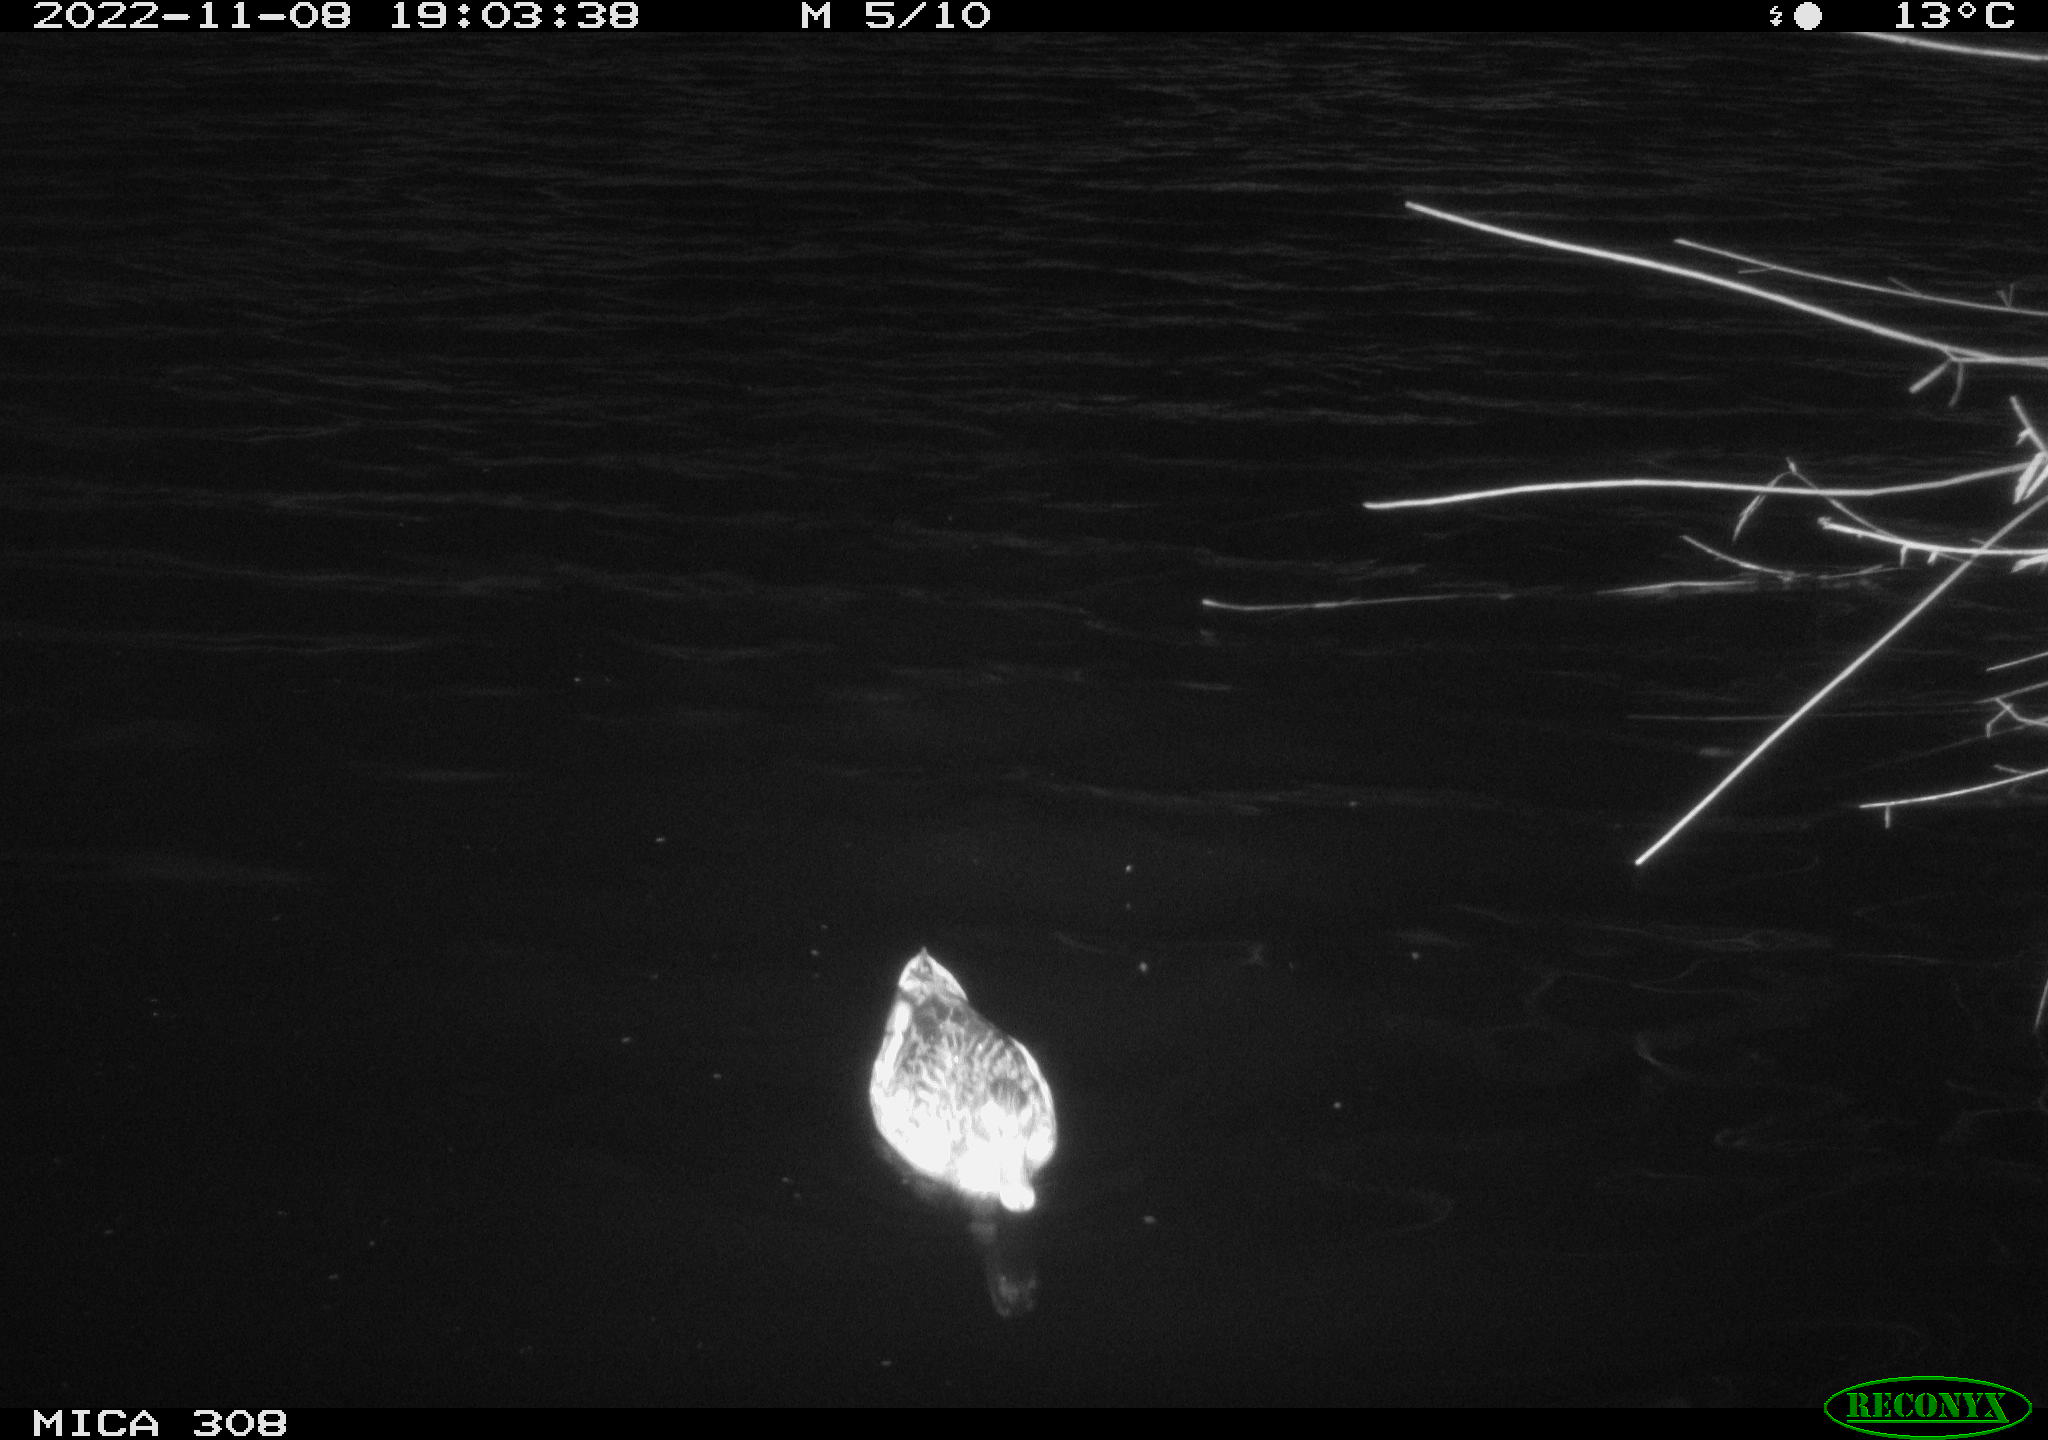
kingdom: Animalia
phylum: Chordata
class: Aves
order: Anseriformes
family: Anatidae
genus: Anas
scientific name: Anas
